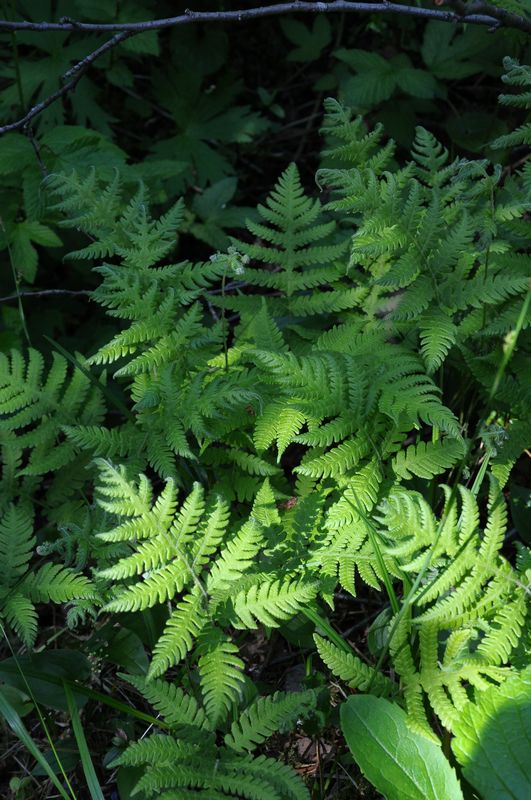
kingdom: Plantae
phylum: Tracheophyta
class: Polypodiopsida
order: Polypodiales
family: Thelypteridaceae
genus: Phegopteris
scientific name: Phegopteris connectilis
